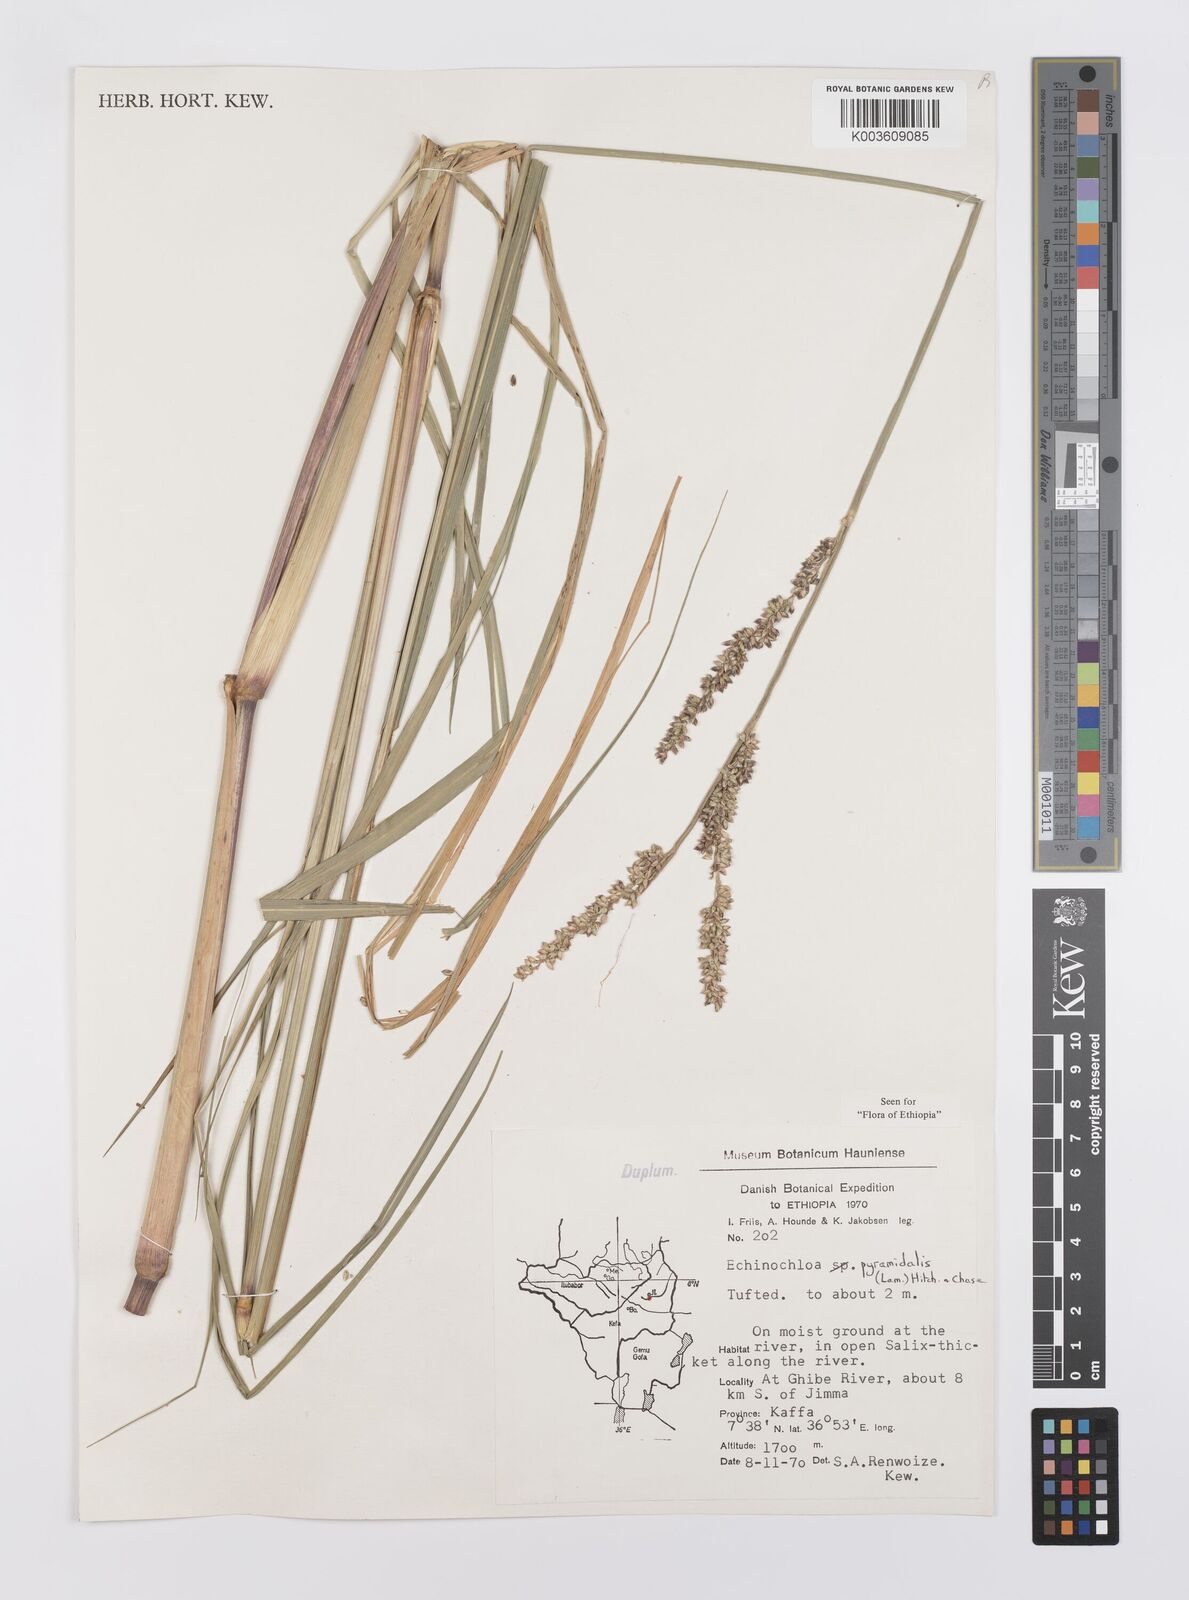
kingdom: Plantae
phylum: Tracheophyta
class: Liliopsida
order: Poales
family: Poaceae
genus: Echinochloa
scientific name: Echinochloa pyramidalis
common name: Antelope grass
